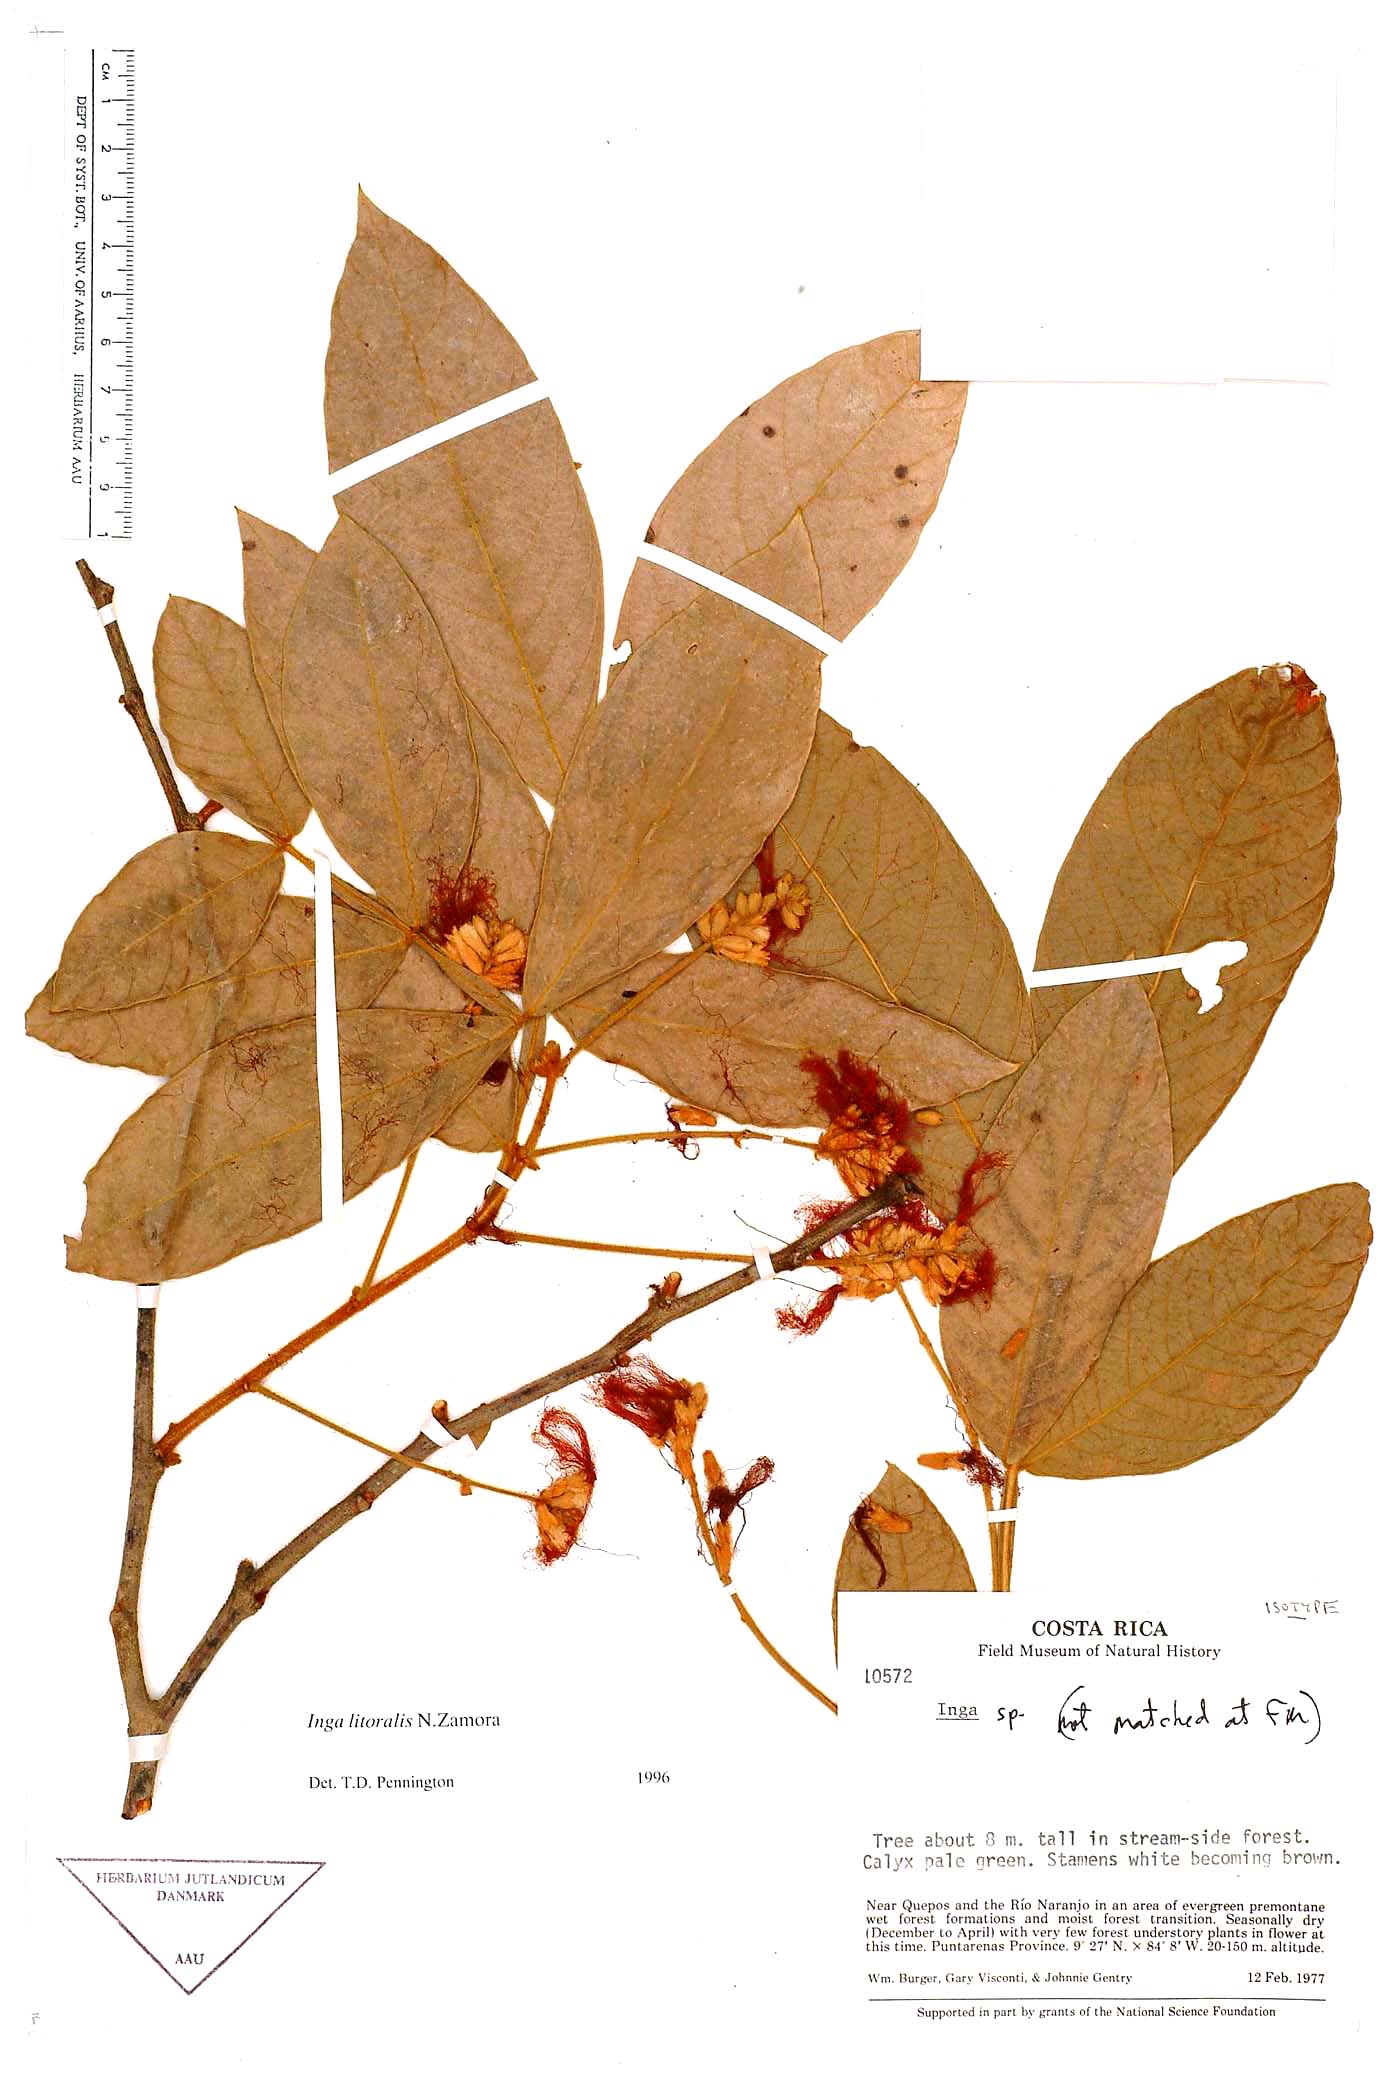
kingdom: Plantae
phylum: Tracheophyta
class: Magnoliopsida
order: Fabales
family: Fabaceae
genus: Inga
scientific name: Inga litoralis
